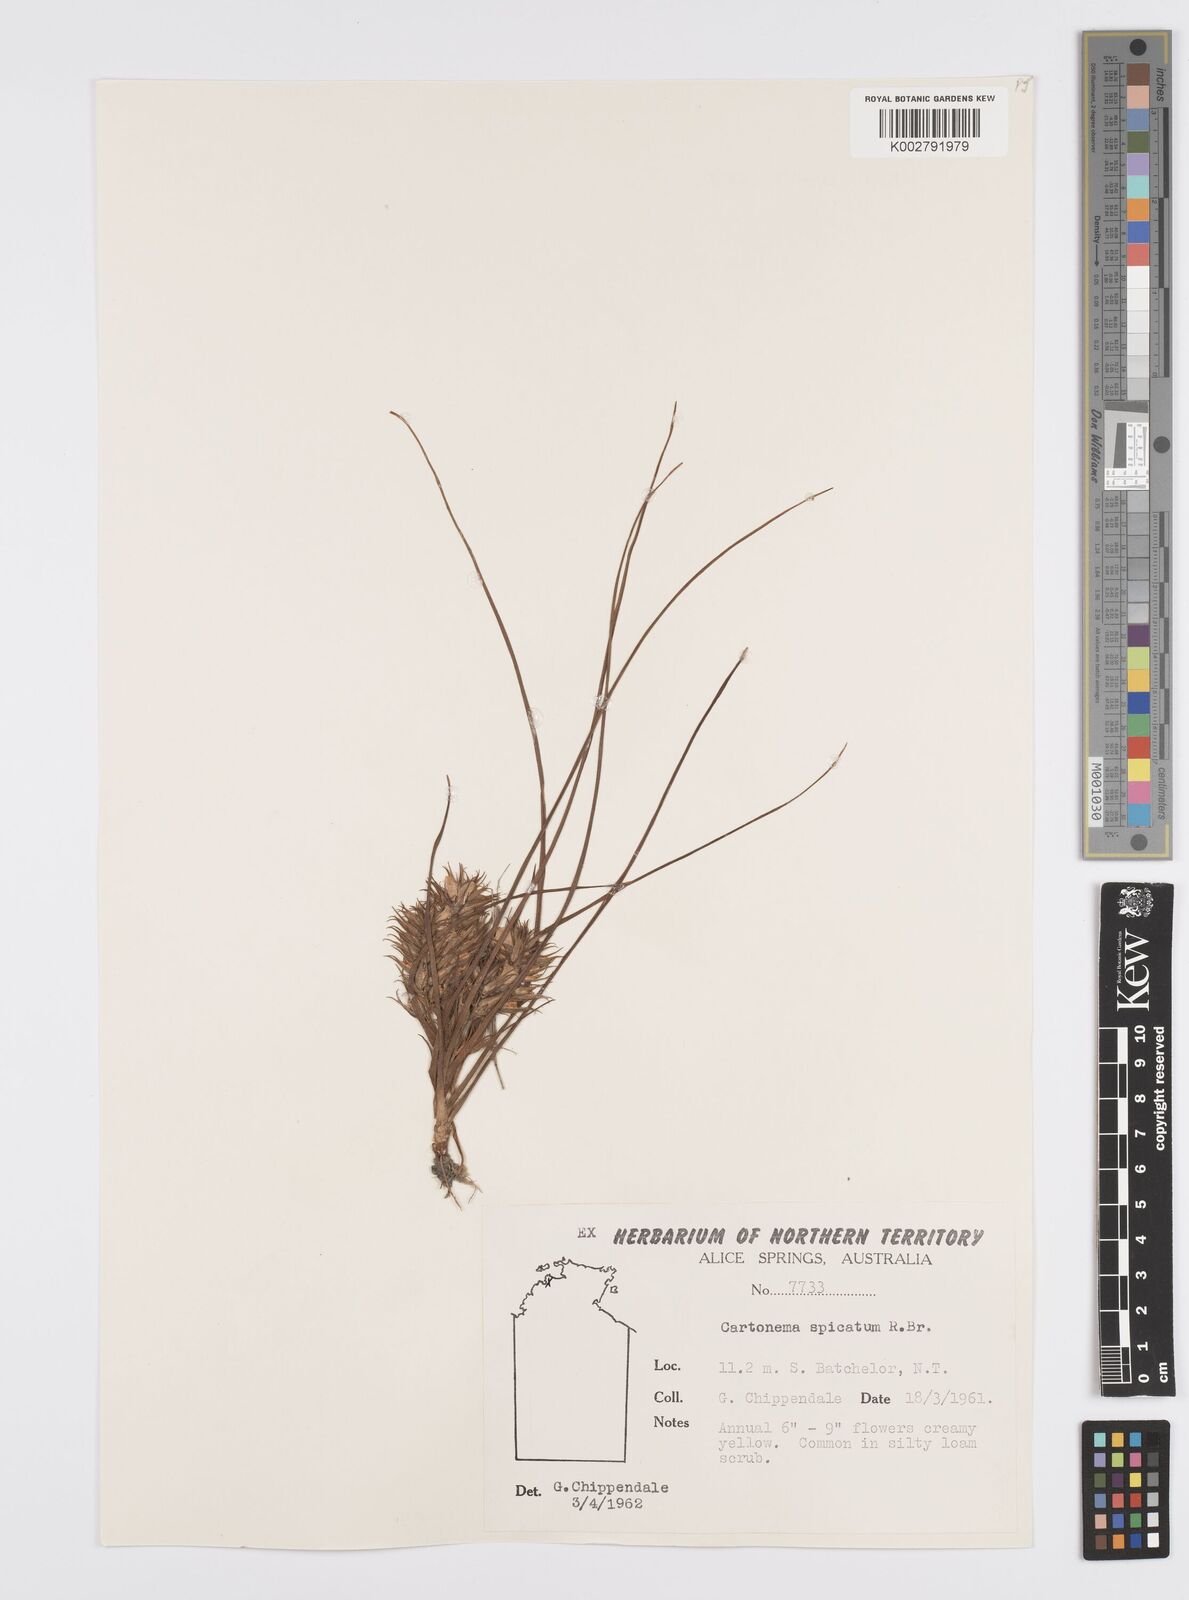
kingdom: Plantae
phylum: Tracheophyta
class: Liliopsida
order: Commelinales
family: Commelinaceae
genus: Cartonema
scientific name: Cartonema spicatum
